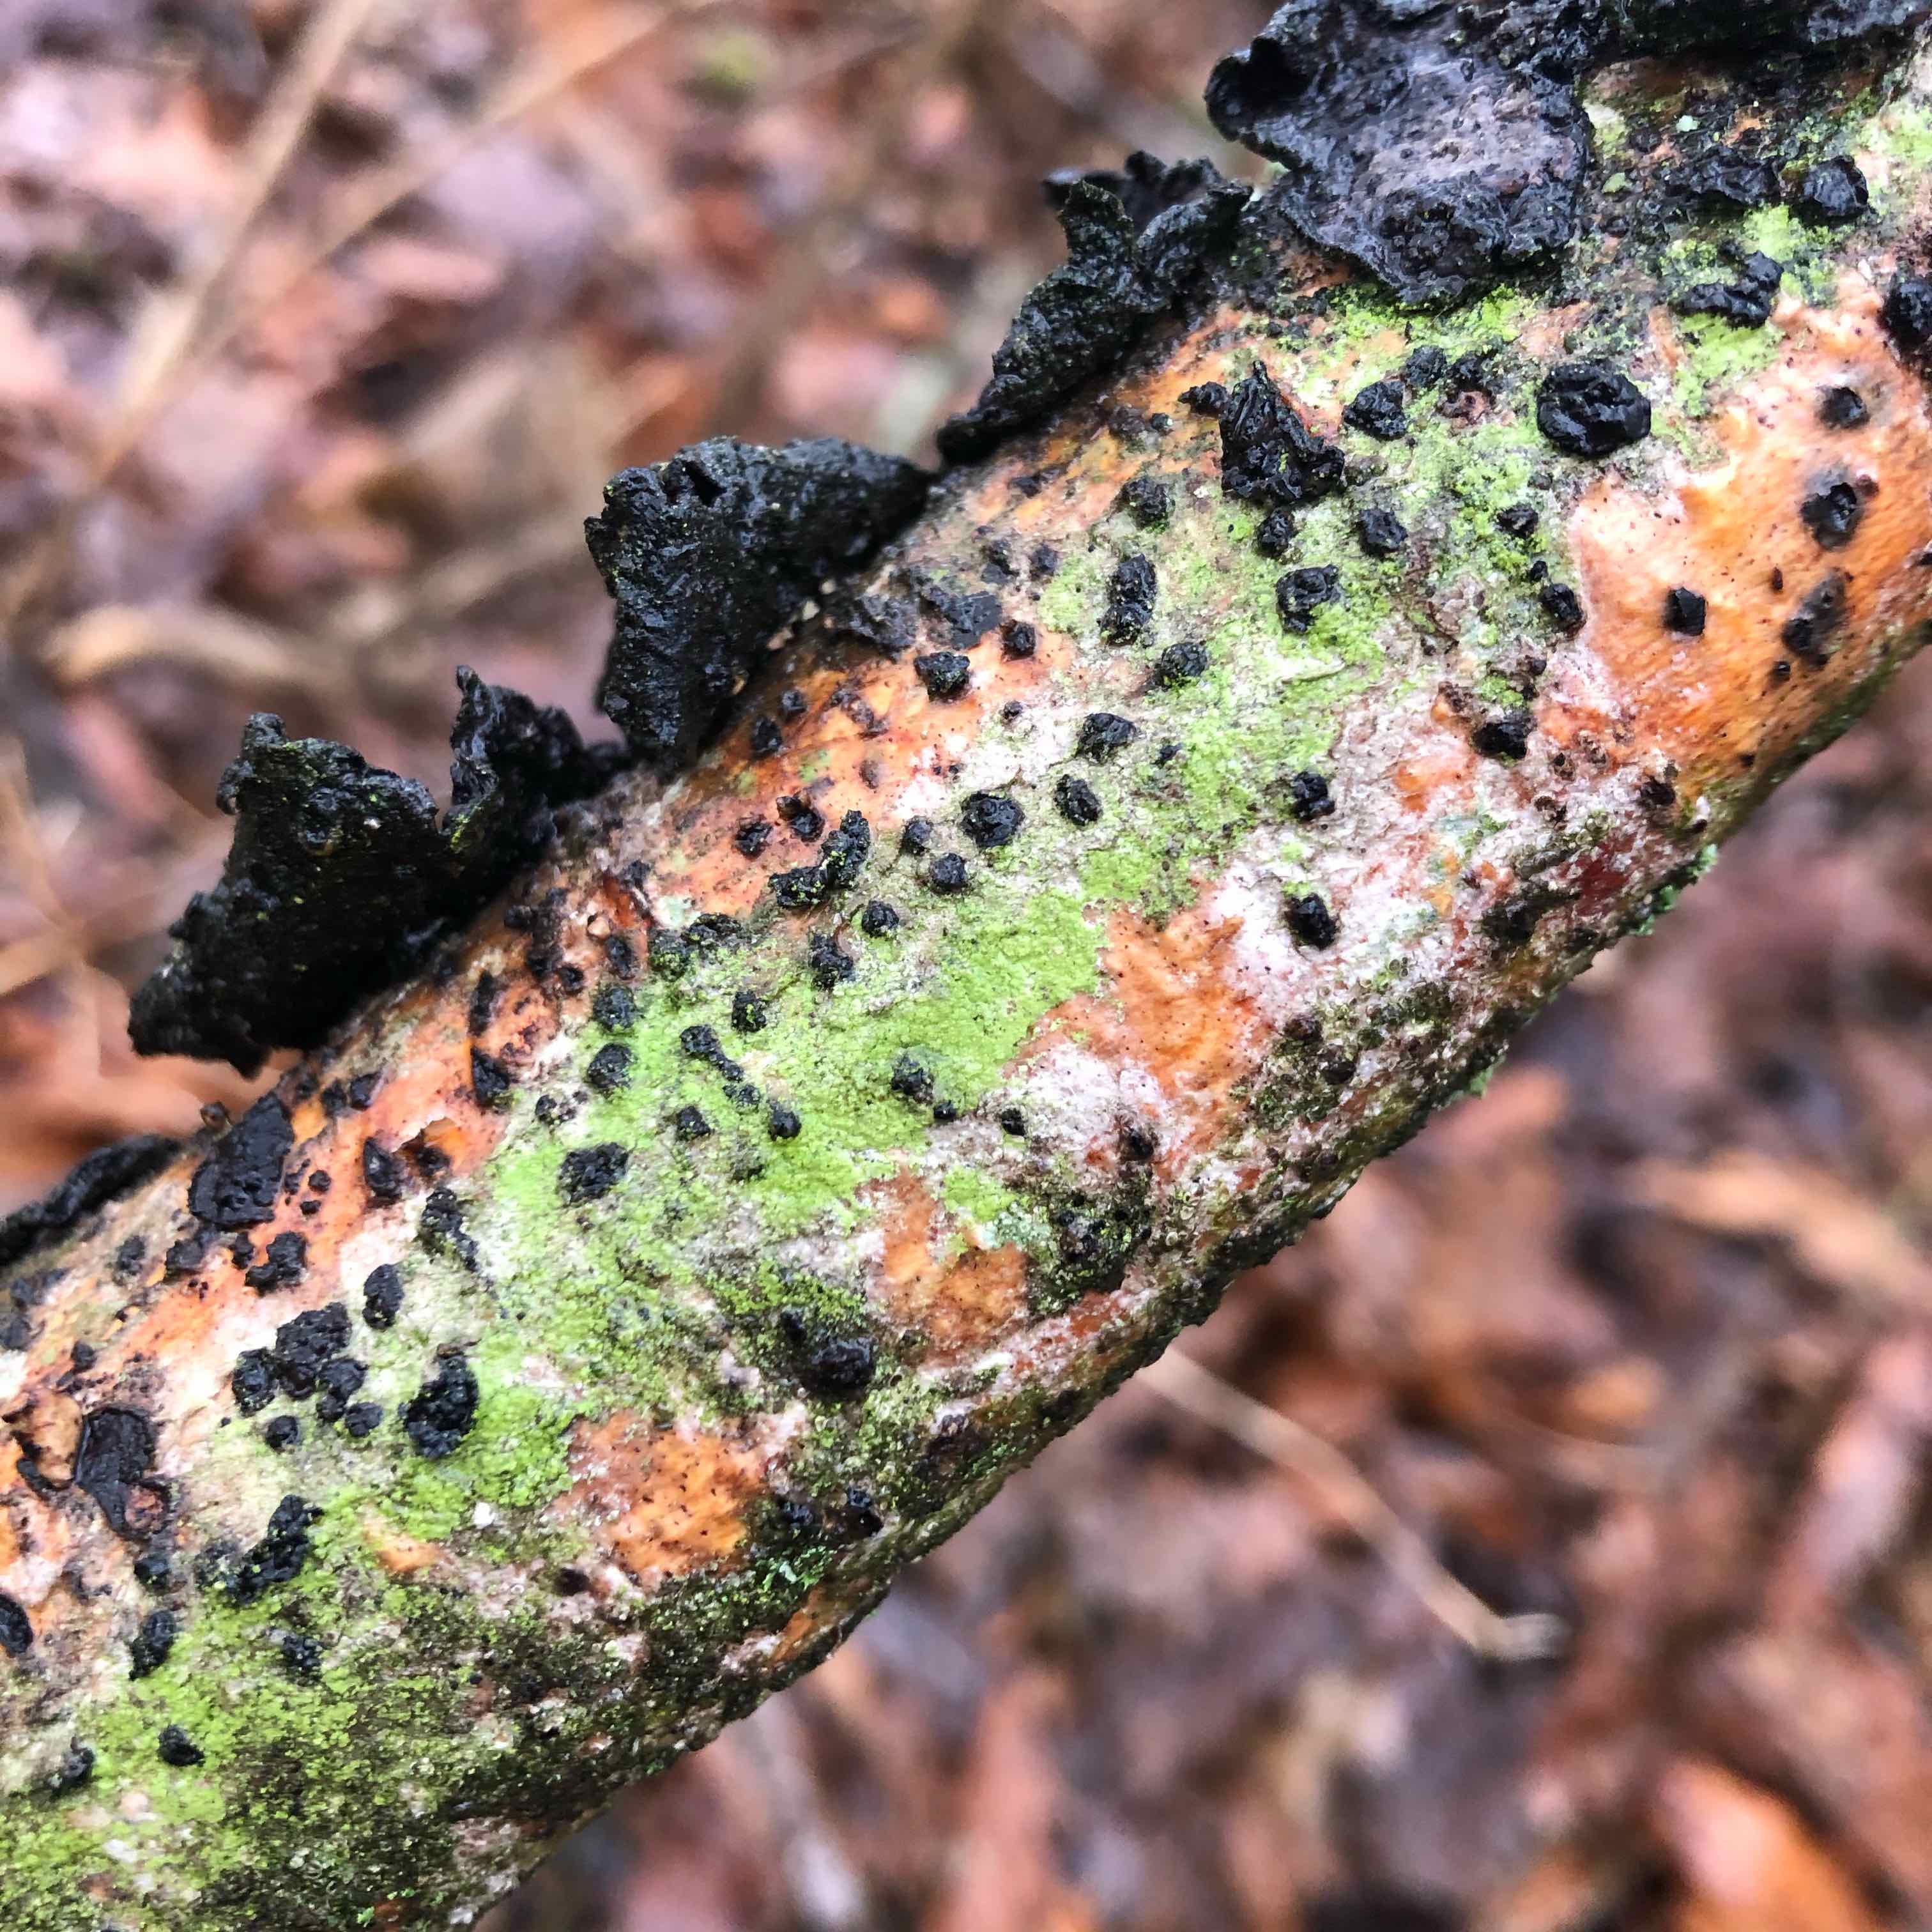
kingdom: Fungi
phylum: Basidiomycota
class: Agaricomycetes
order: Russulales
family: Peniophoraceae
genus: Peniophora
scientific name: Peniophora quercina
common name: ege-voksskind
